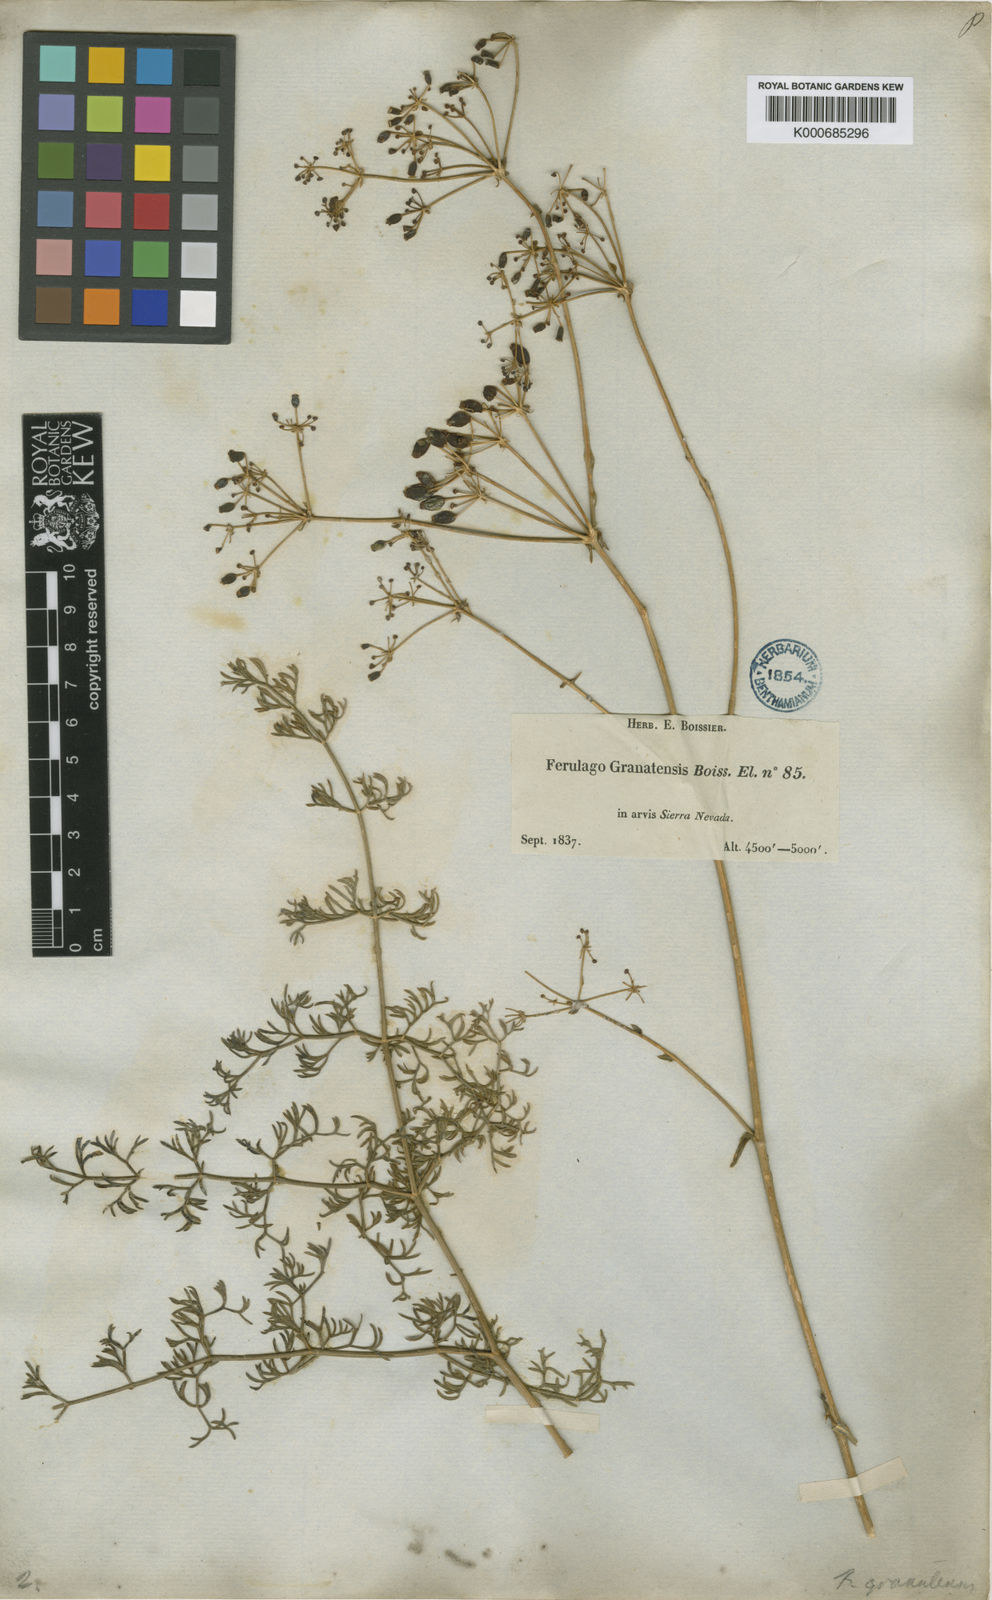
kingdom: Plantae
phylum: Tracheophyta
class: Magnoliopsida
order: Apiales
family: Apiaceae
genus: Ferulago
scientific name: Ferulago granatensis
